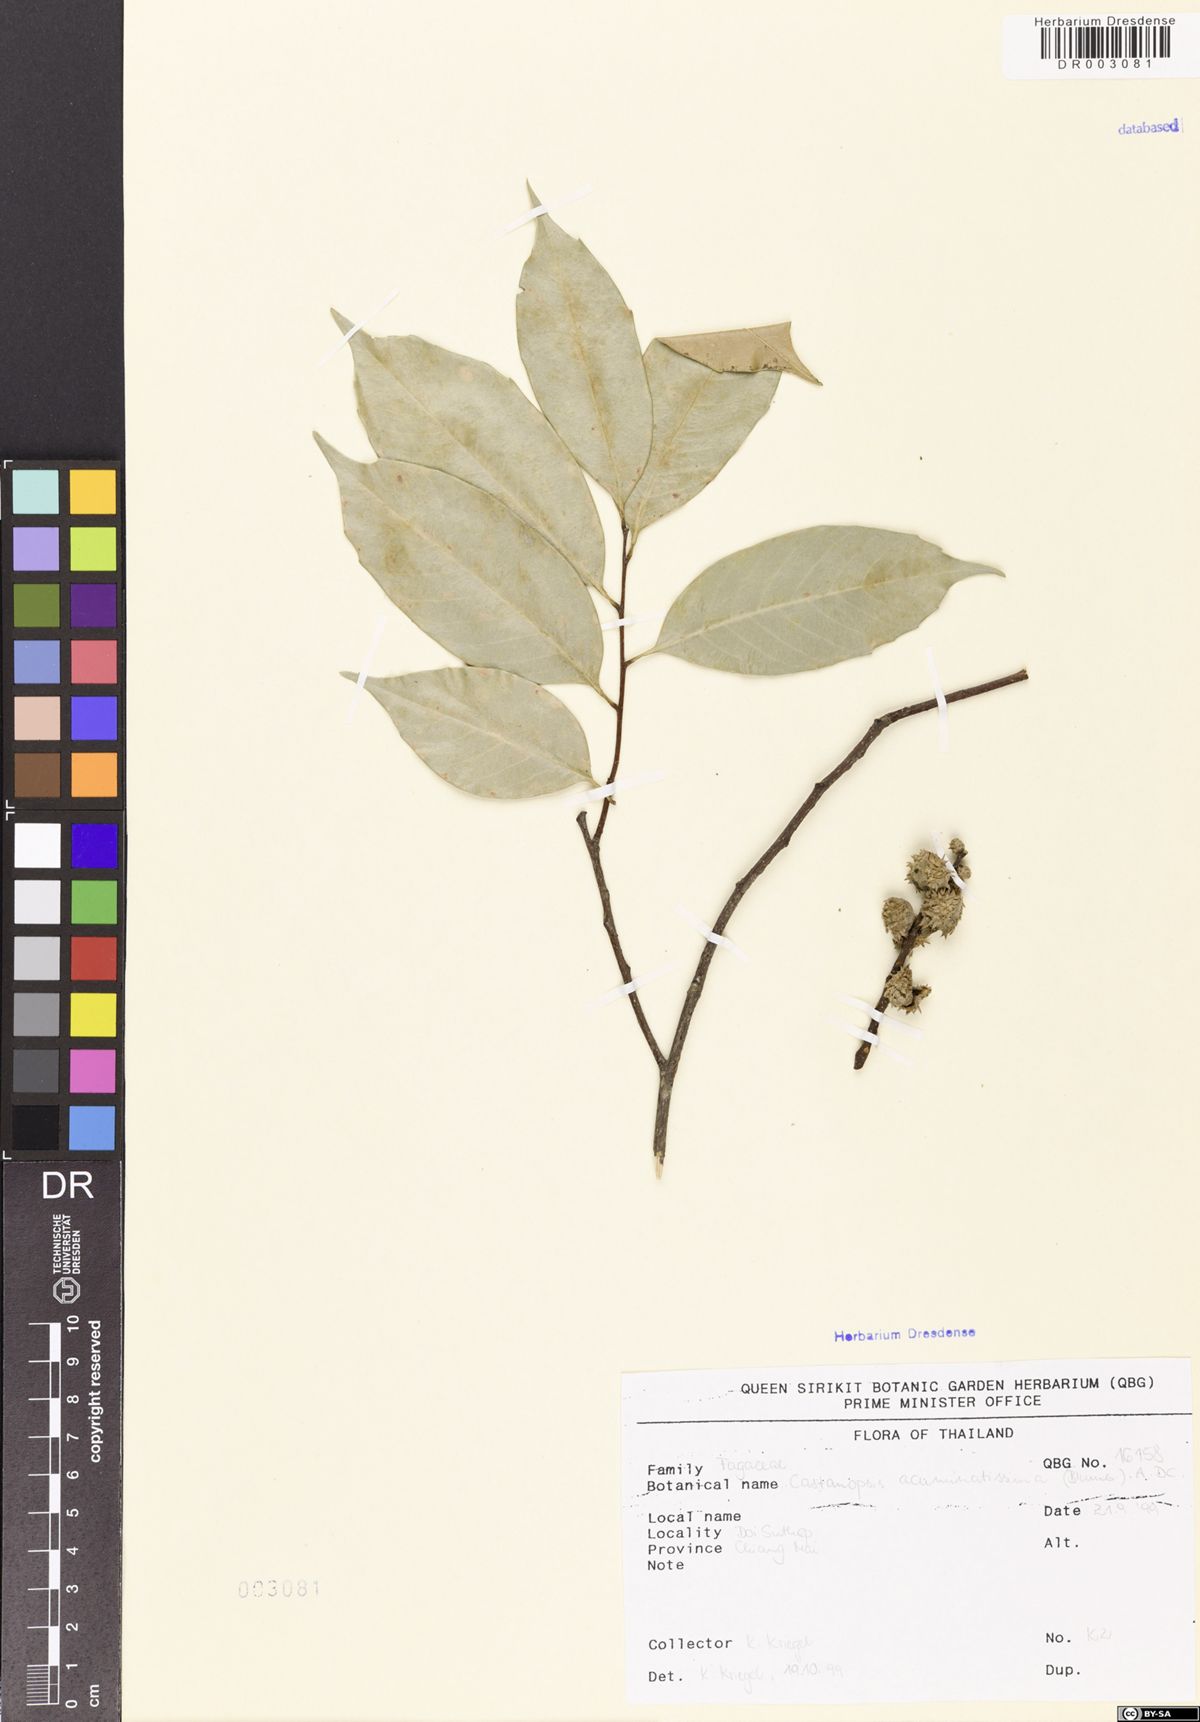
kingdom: Plantae
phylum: Tracheophyta
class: Magnoliopsida
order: Fagales
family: Fagaceae
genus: Castanopsis
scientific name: Castanopsis acuminatissima
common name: Papua new guinea oak
